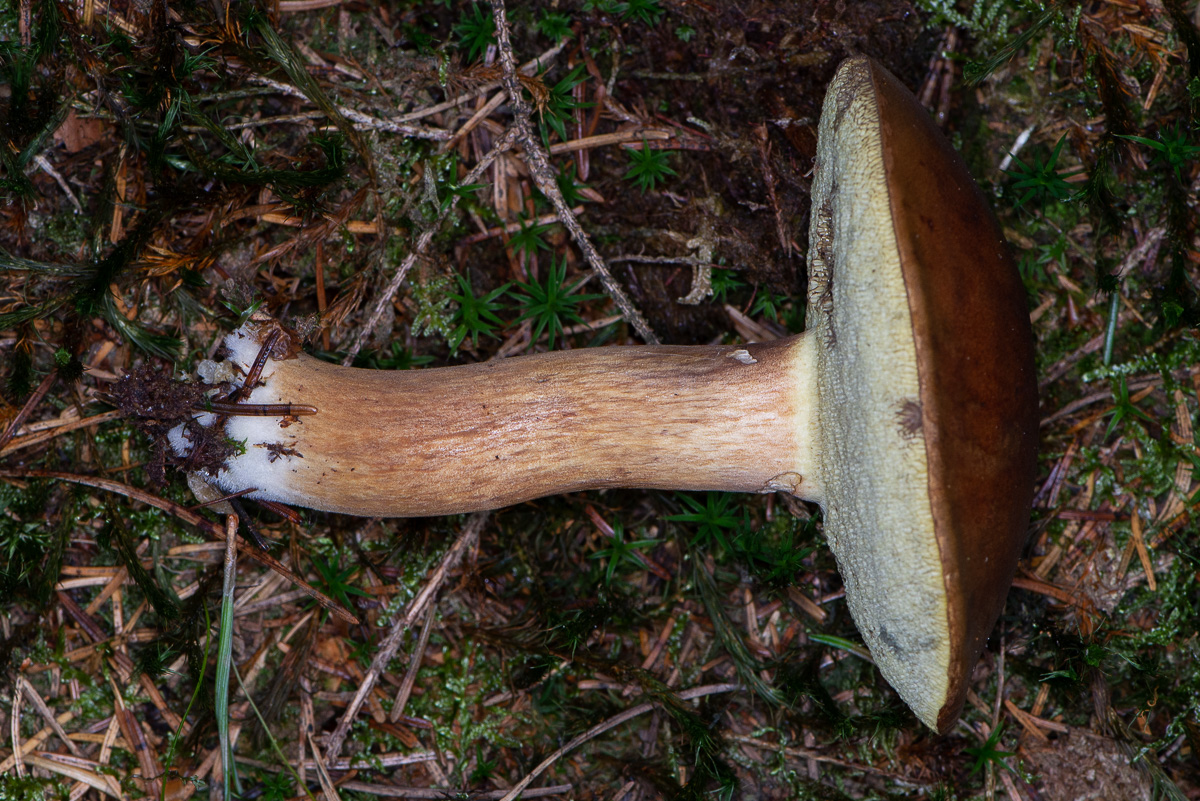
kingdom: Fungi
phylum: Basidiomycota
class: Agaricomycetes
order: Boletales
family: Boletaceae
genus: Imleria
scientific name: Imleria badia
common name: brunstokket rørhat
